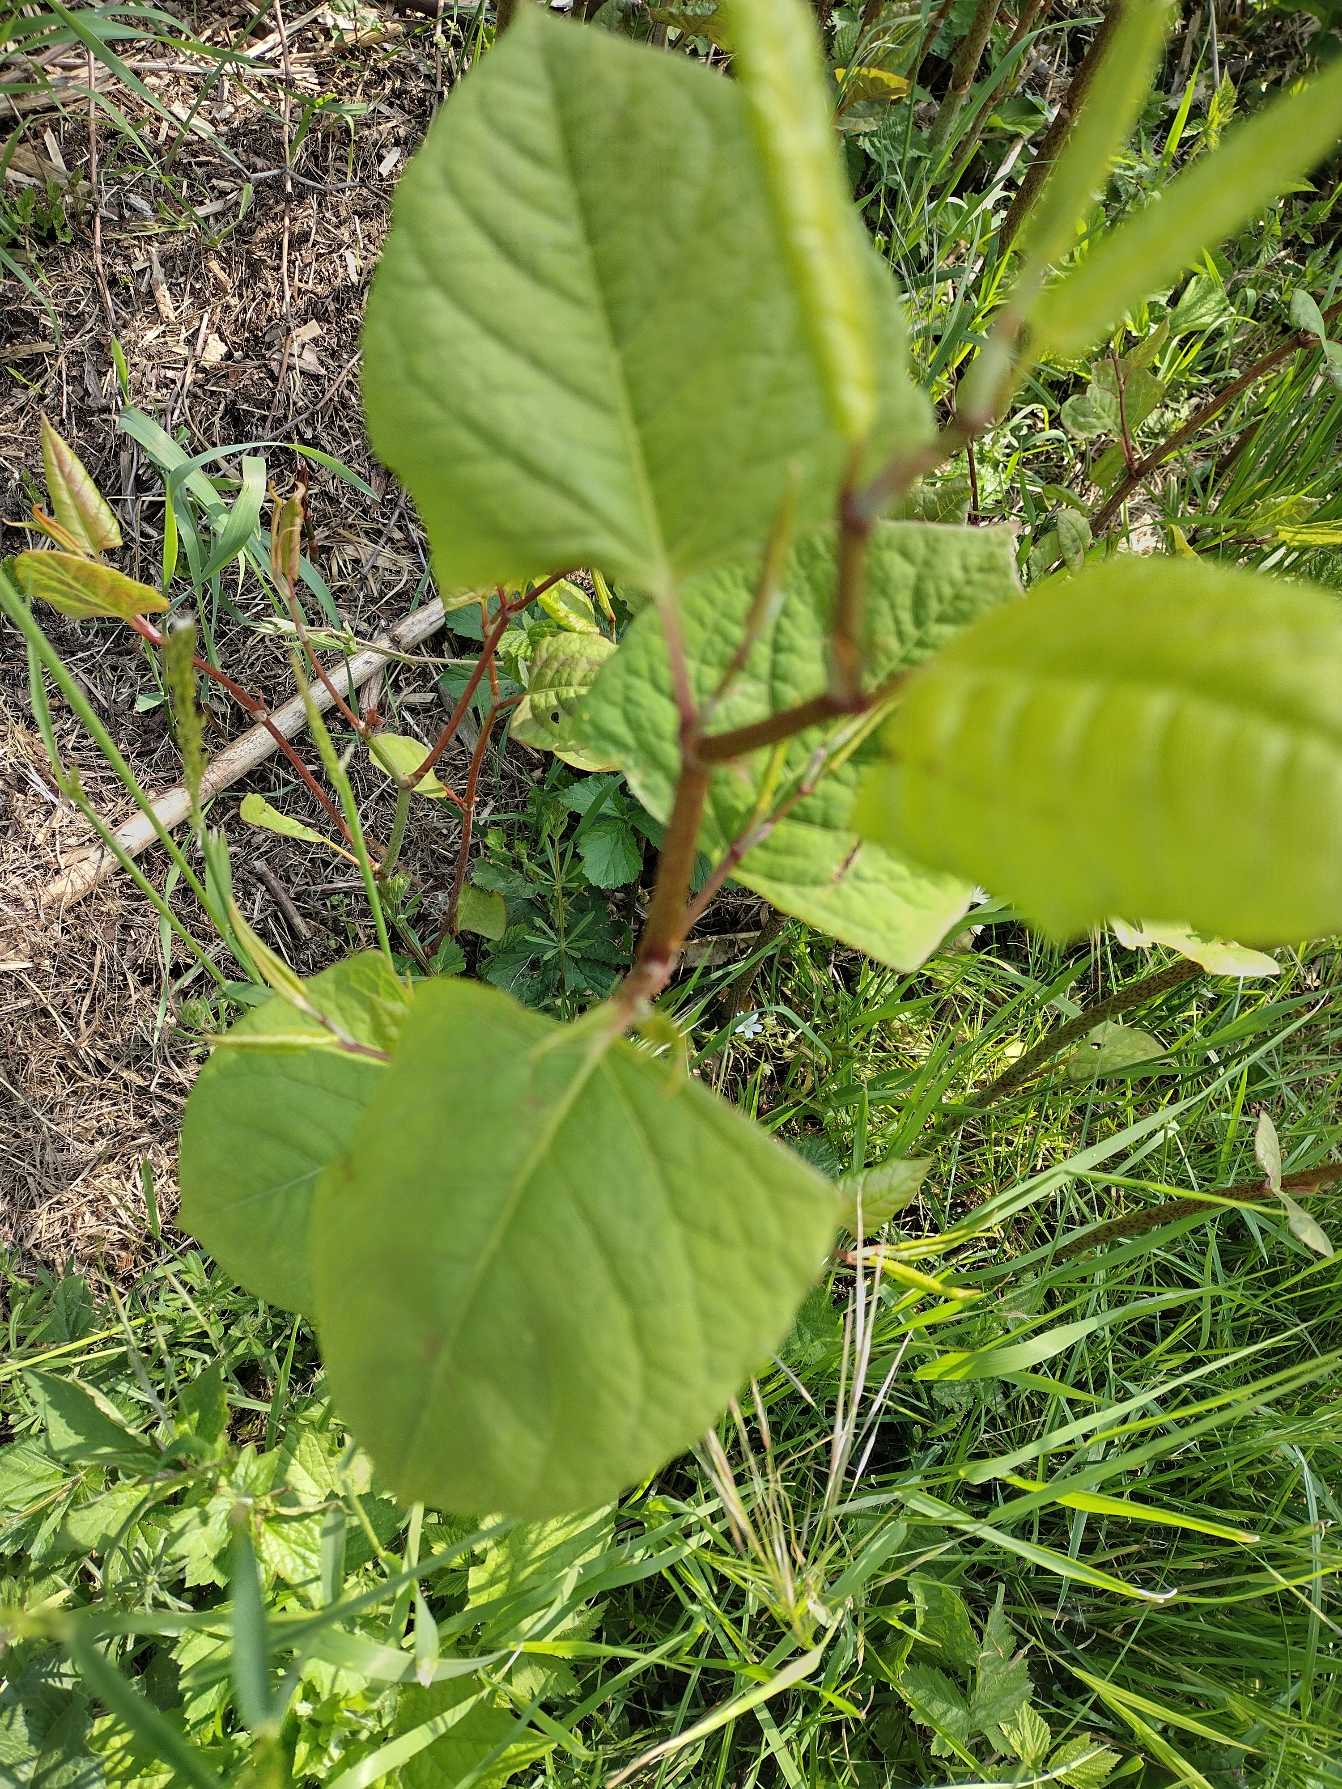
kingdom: Plantae
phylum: Tracheophyta
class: Magnoliopsida
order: Caryophyllales
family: Polygonaceae
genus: Reynoutria
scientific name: Reynoutria japonica
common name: Japan-pileurt
